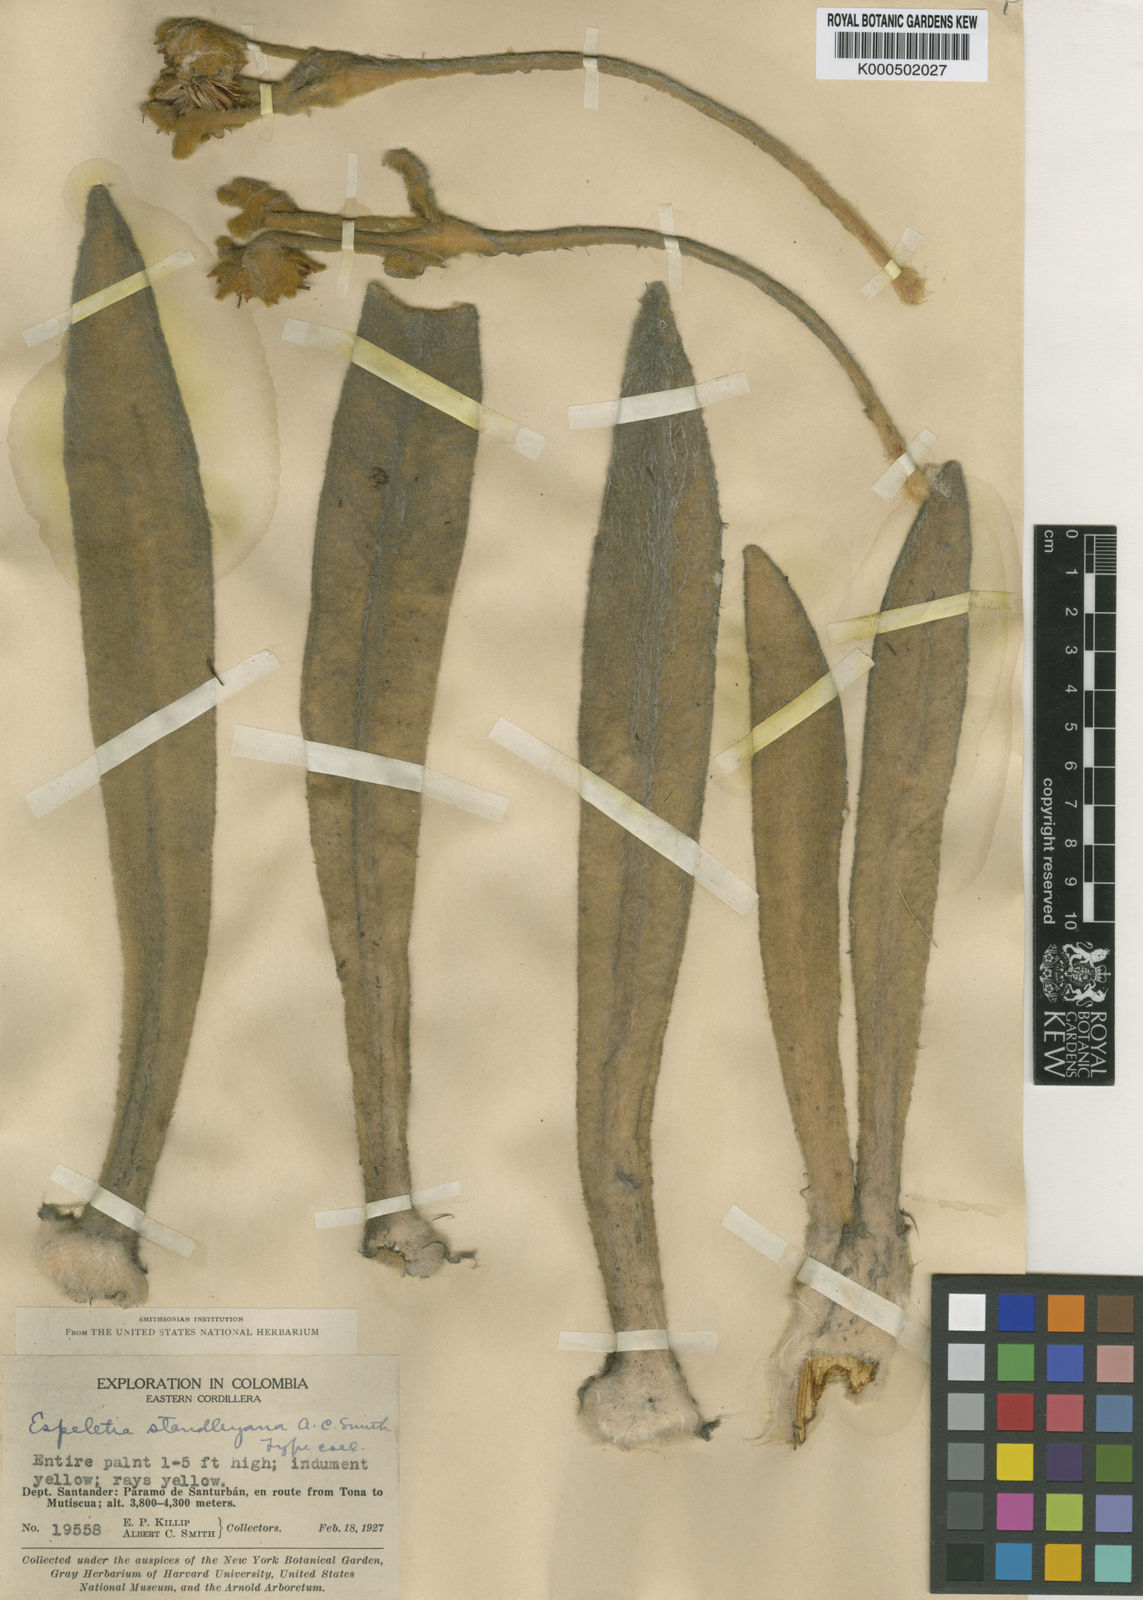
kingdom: Plantae
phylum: Tracheophyta
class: Magnoliopsida
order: Asterales
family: Asteraceae
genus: Espeletia
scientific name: Espeletia standleyana
